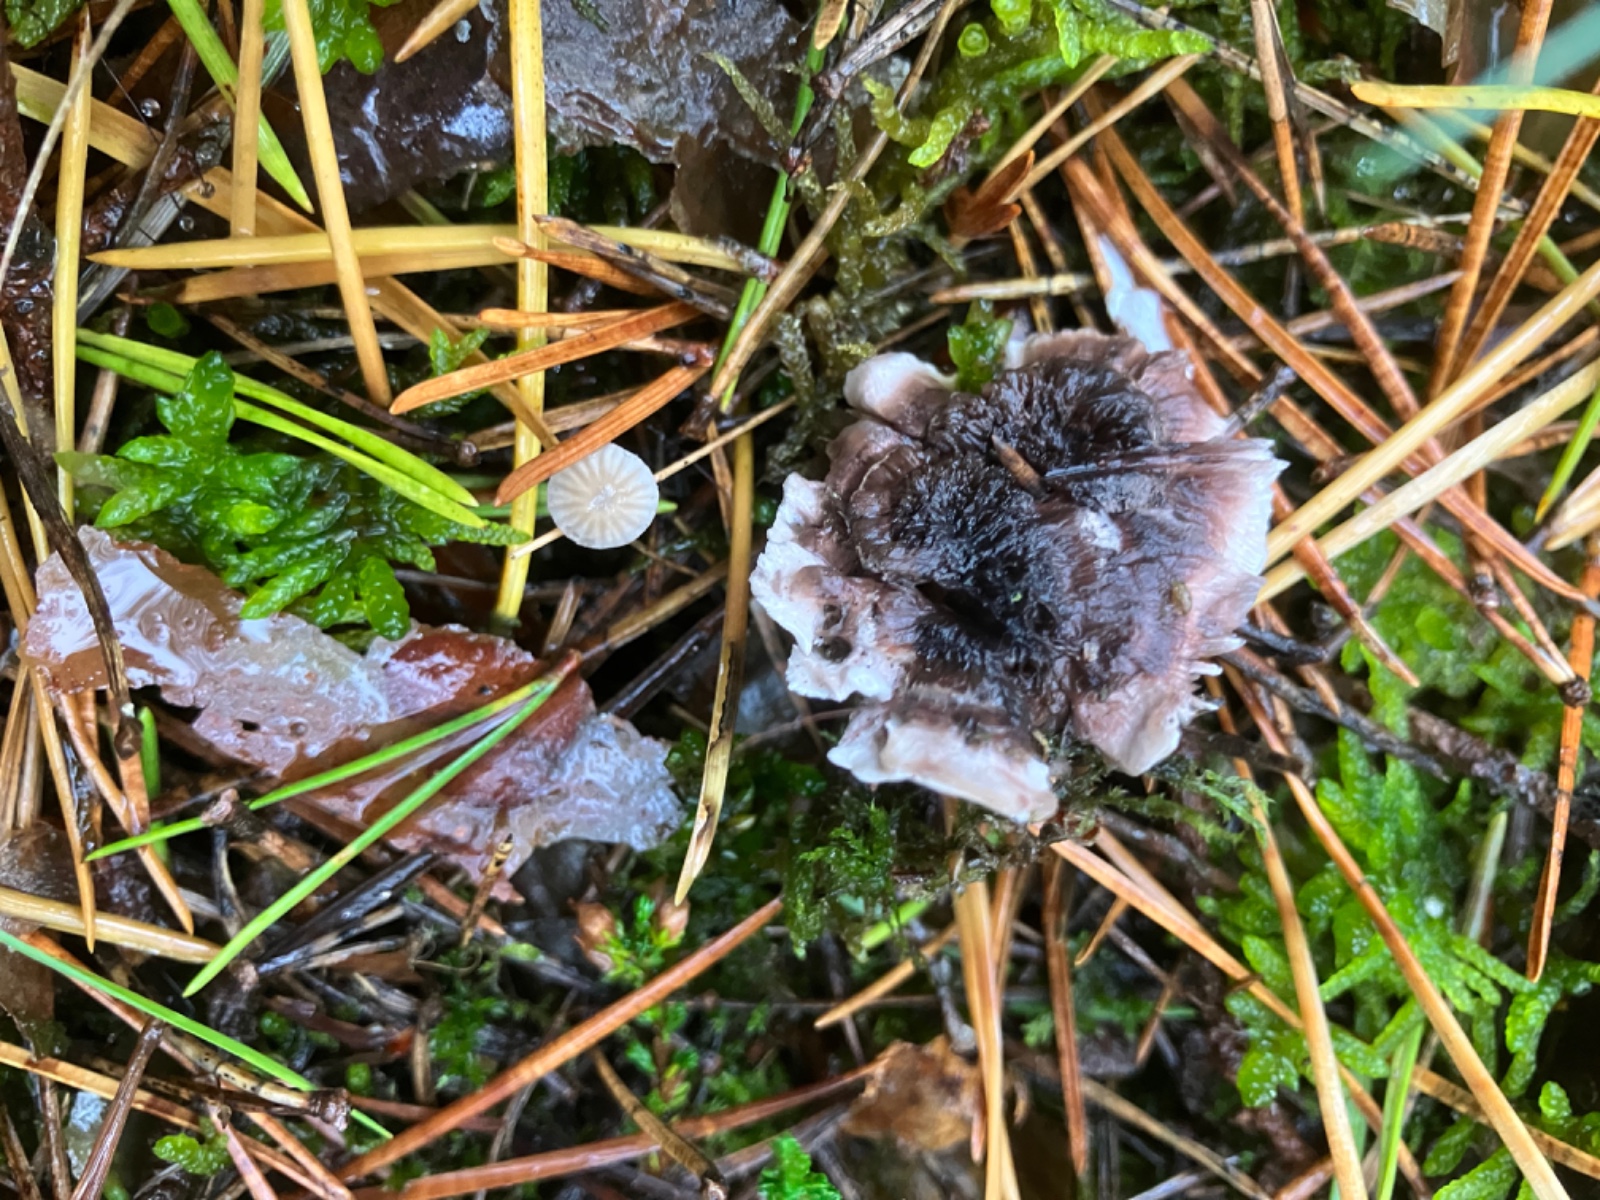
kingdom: Fungi
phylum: Basidiomycota
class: Agaricomycetes
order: Thelephorales
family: Thelephoraceae
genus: Phellodon
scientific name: Phellodon tomentosus
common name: vellugtende duftpigsvamp
